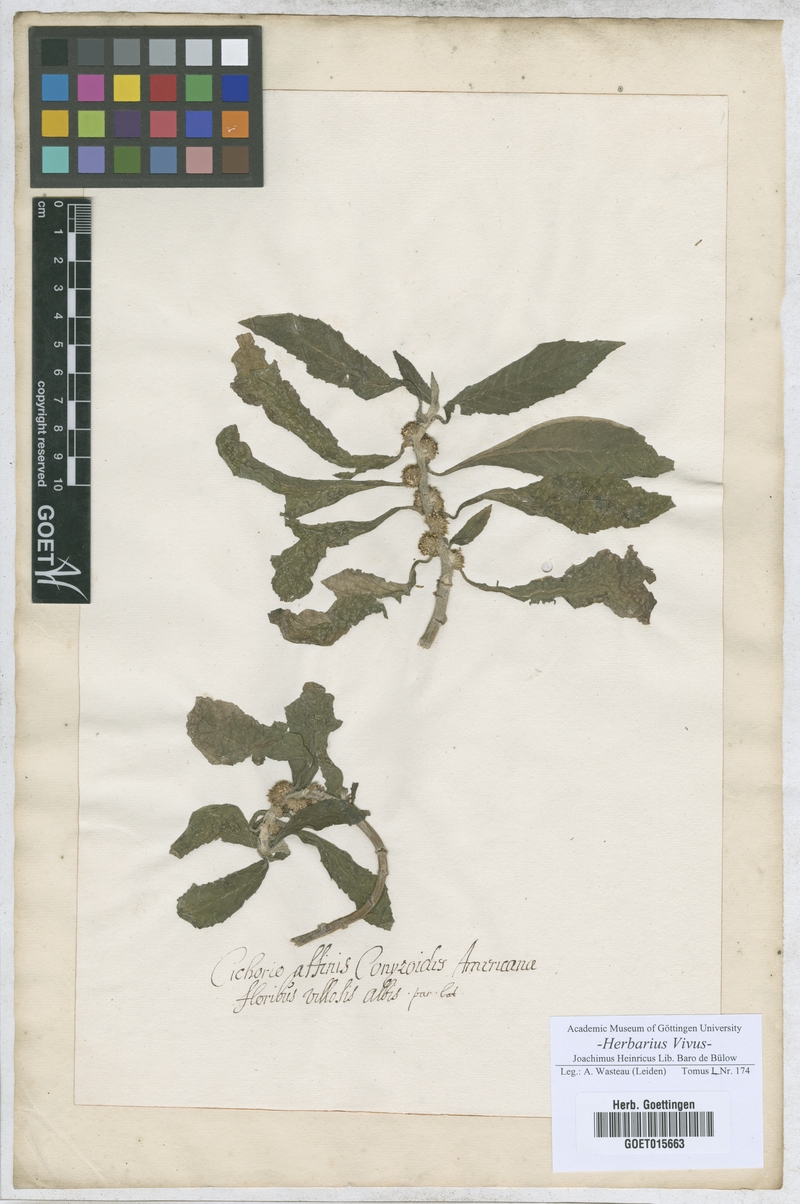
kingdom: Plantae
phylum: Tracheophyta
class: Magnoliopsida
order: Asterales
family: Asteraceae
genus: Cichorium
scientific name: Cichorium
